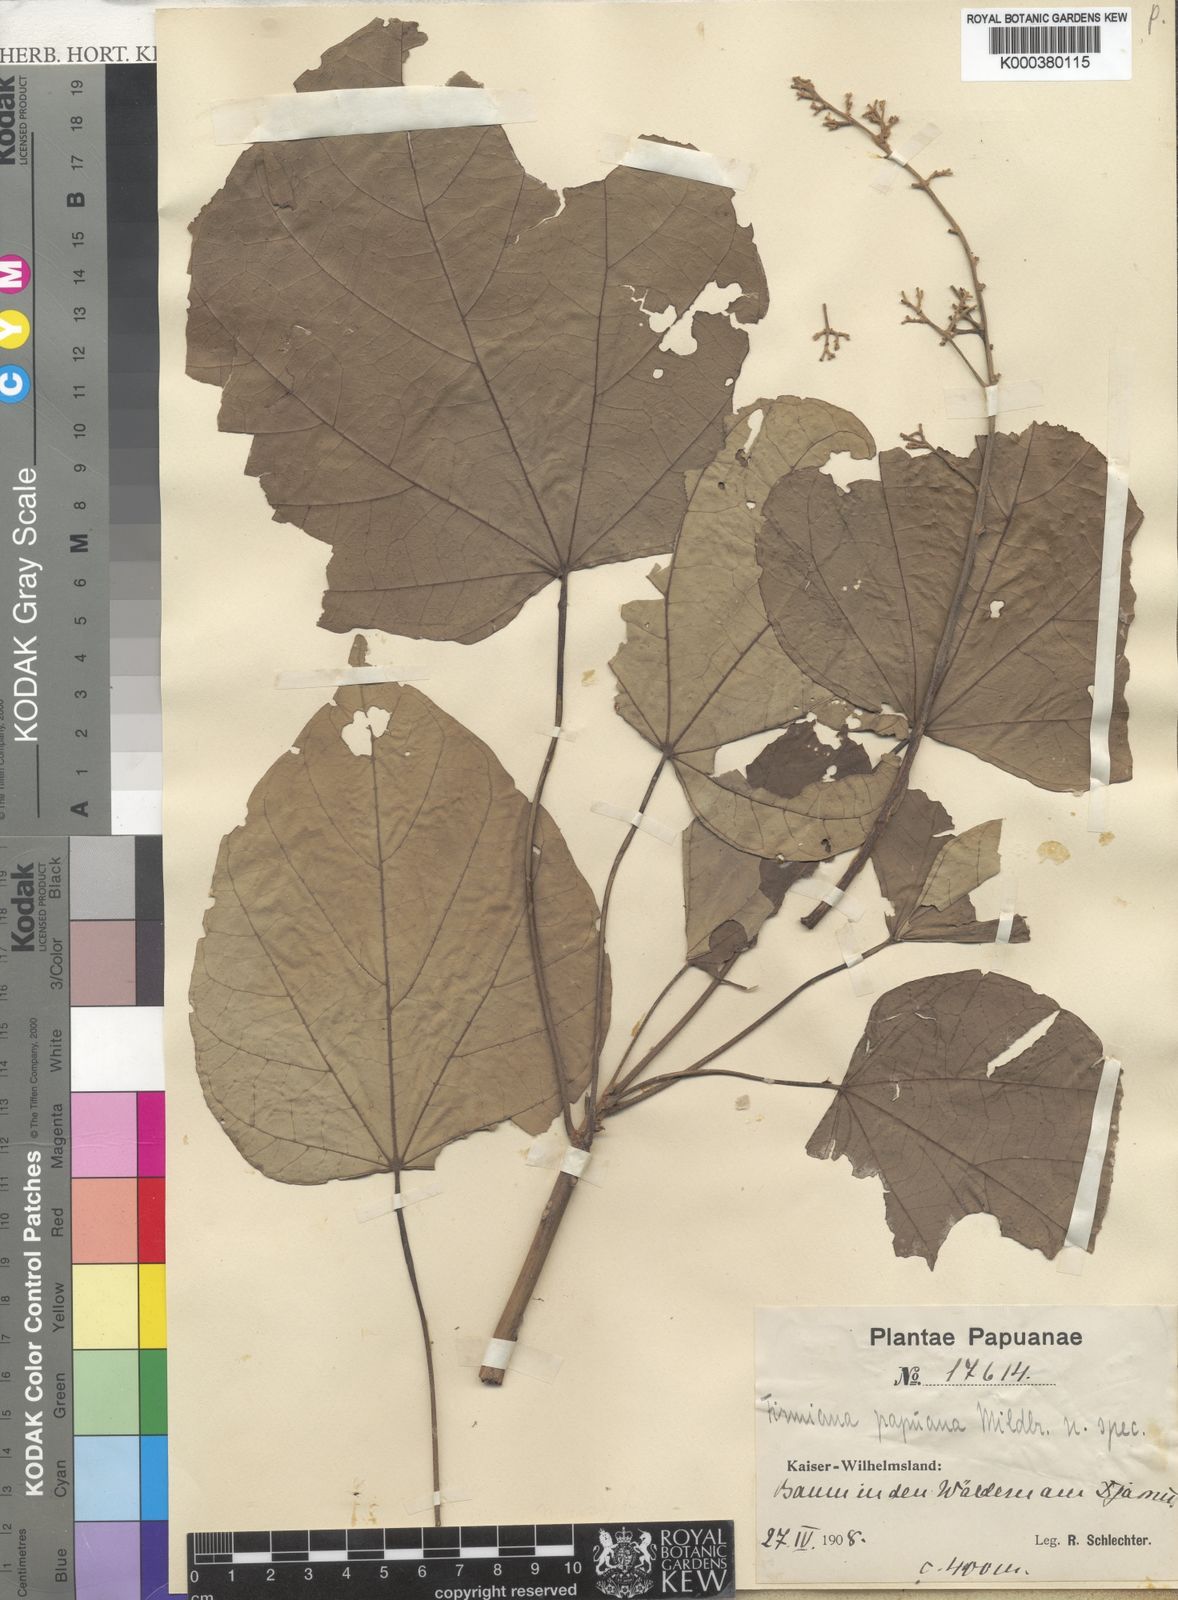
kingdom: Plantae
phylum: Tracheophyta
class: Magnoliopsida
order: Malvales
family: Malvaceae
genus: Firmiana
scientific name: Firmiana papuana
